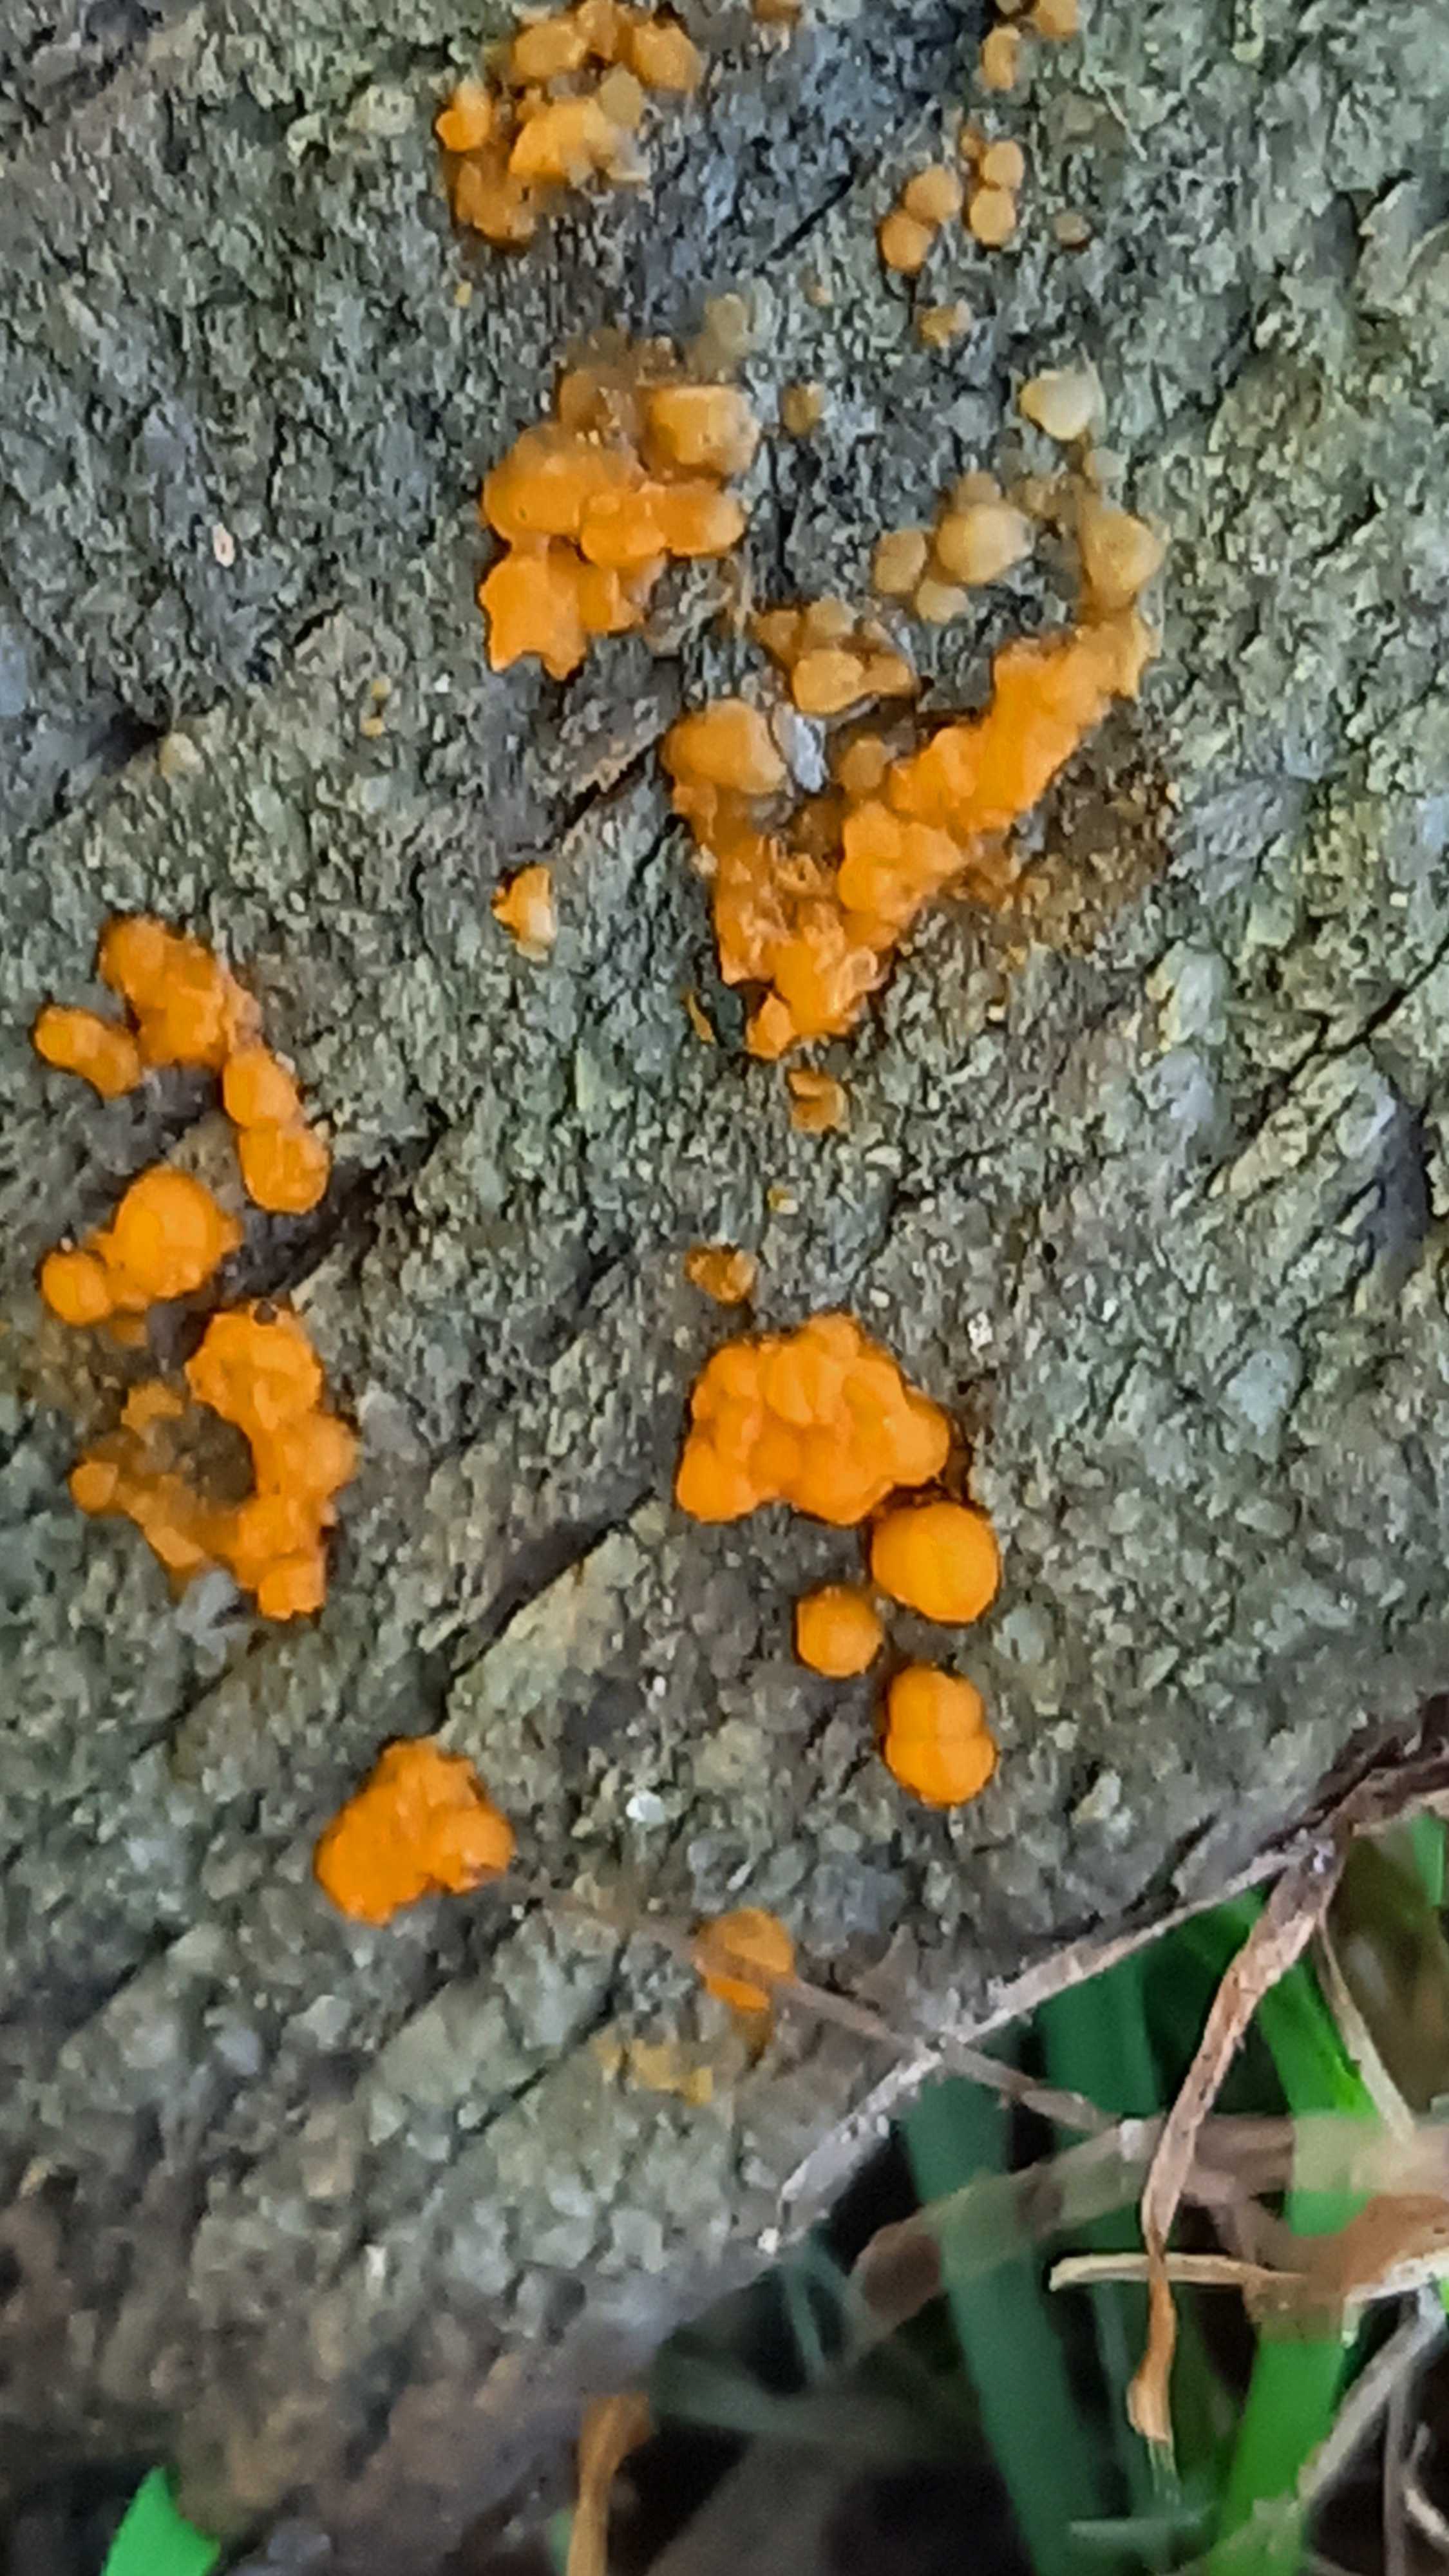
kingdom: Fungi
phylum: Basidiomycota
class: Dacrymycetes
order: Dacrymycetales
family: Dacrymycetaceae
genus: Dacrymyces
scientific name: Dacrymyces stillatus
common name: almindelig tåresvamp
